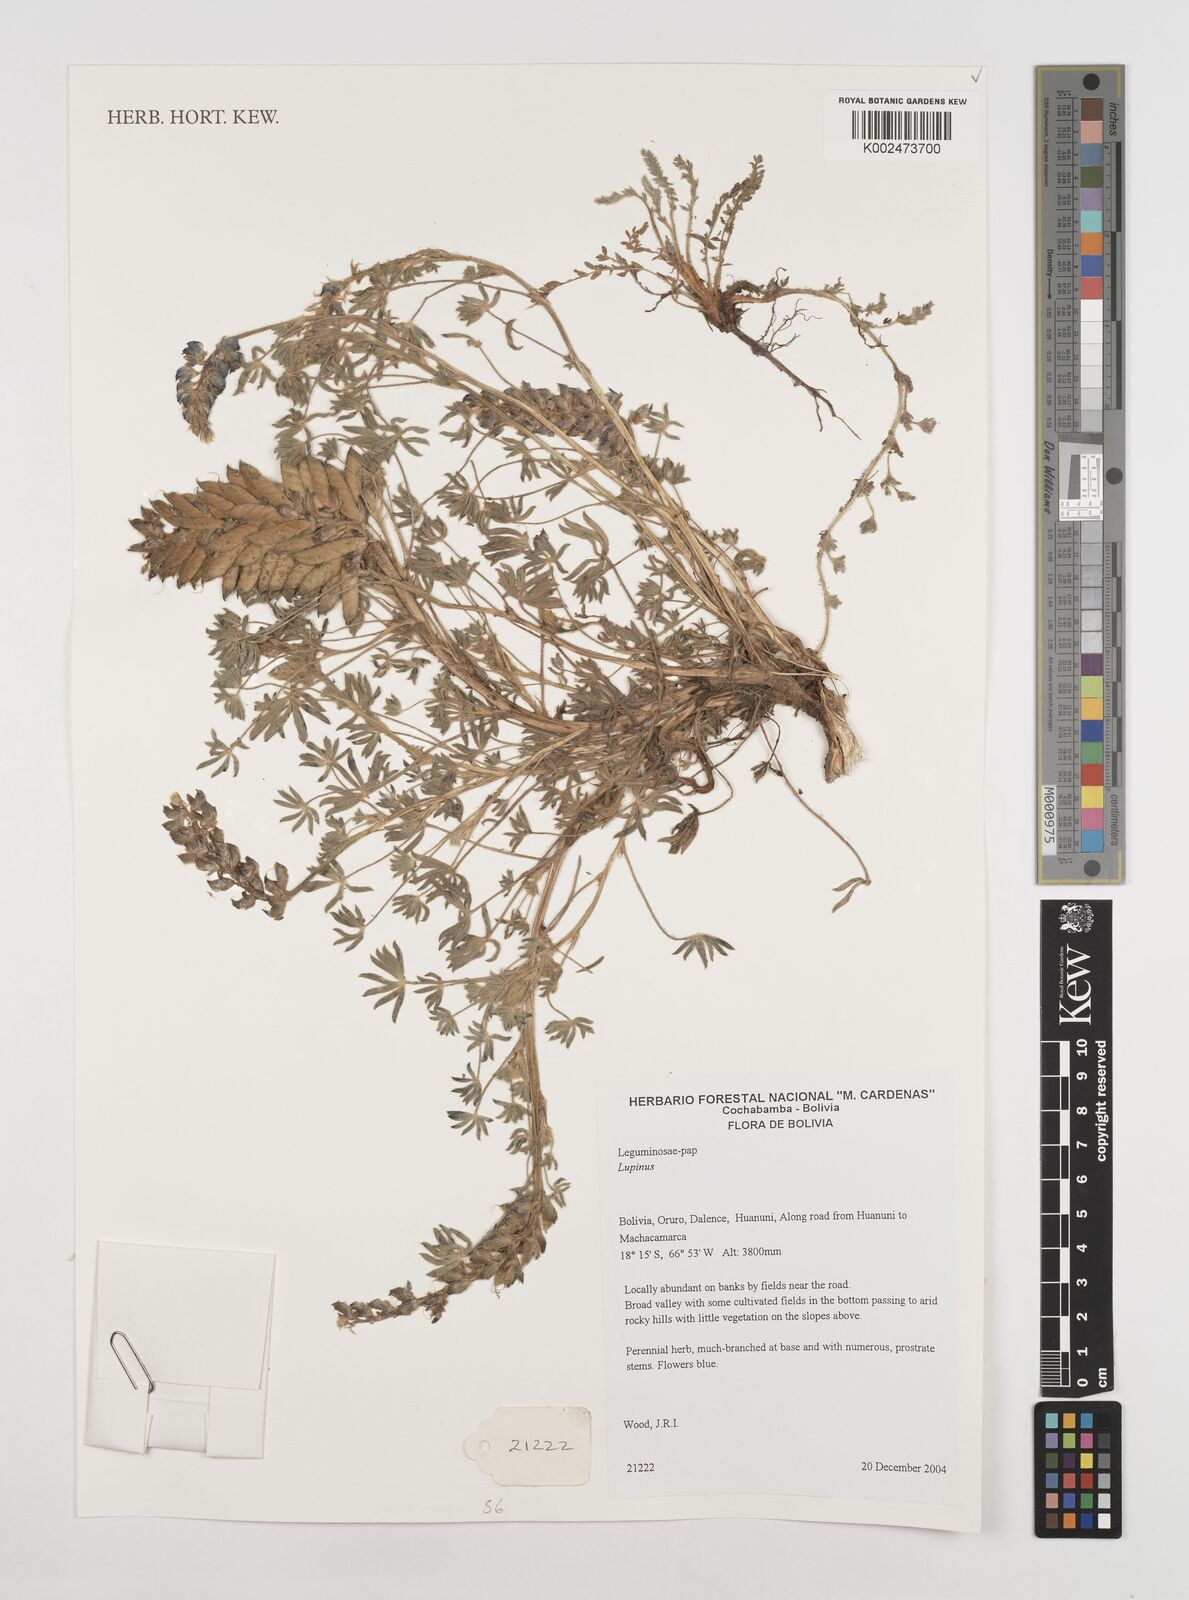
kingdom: Plantae
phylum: Tracheophyta
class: Magnoliopsida
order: Fabales
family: Fabaceae
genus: Lupinus
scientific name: Lupinus
